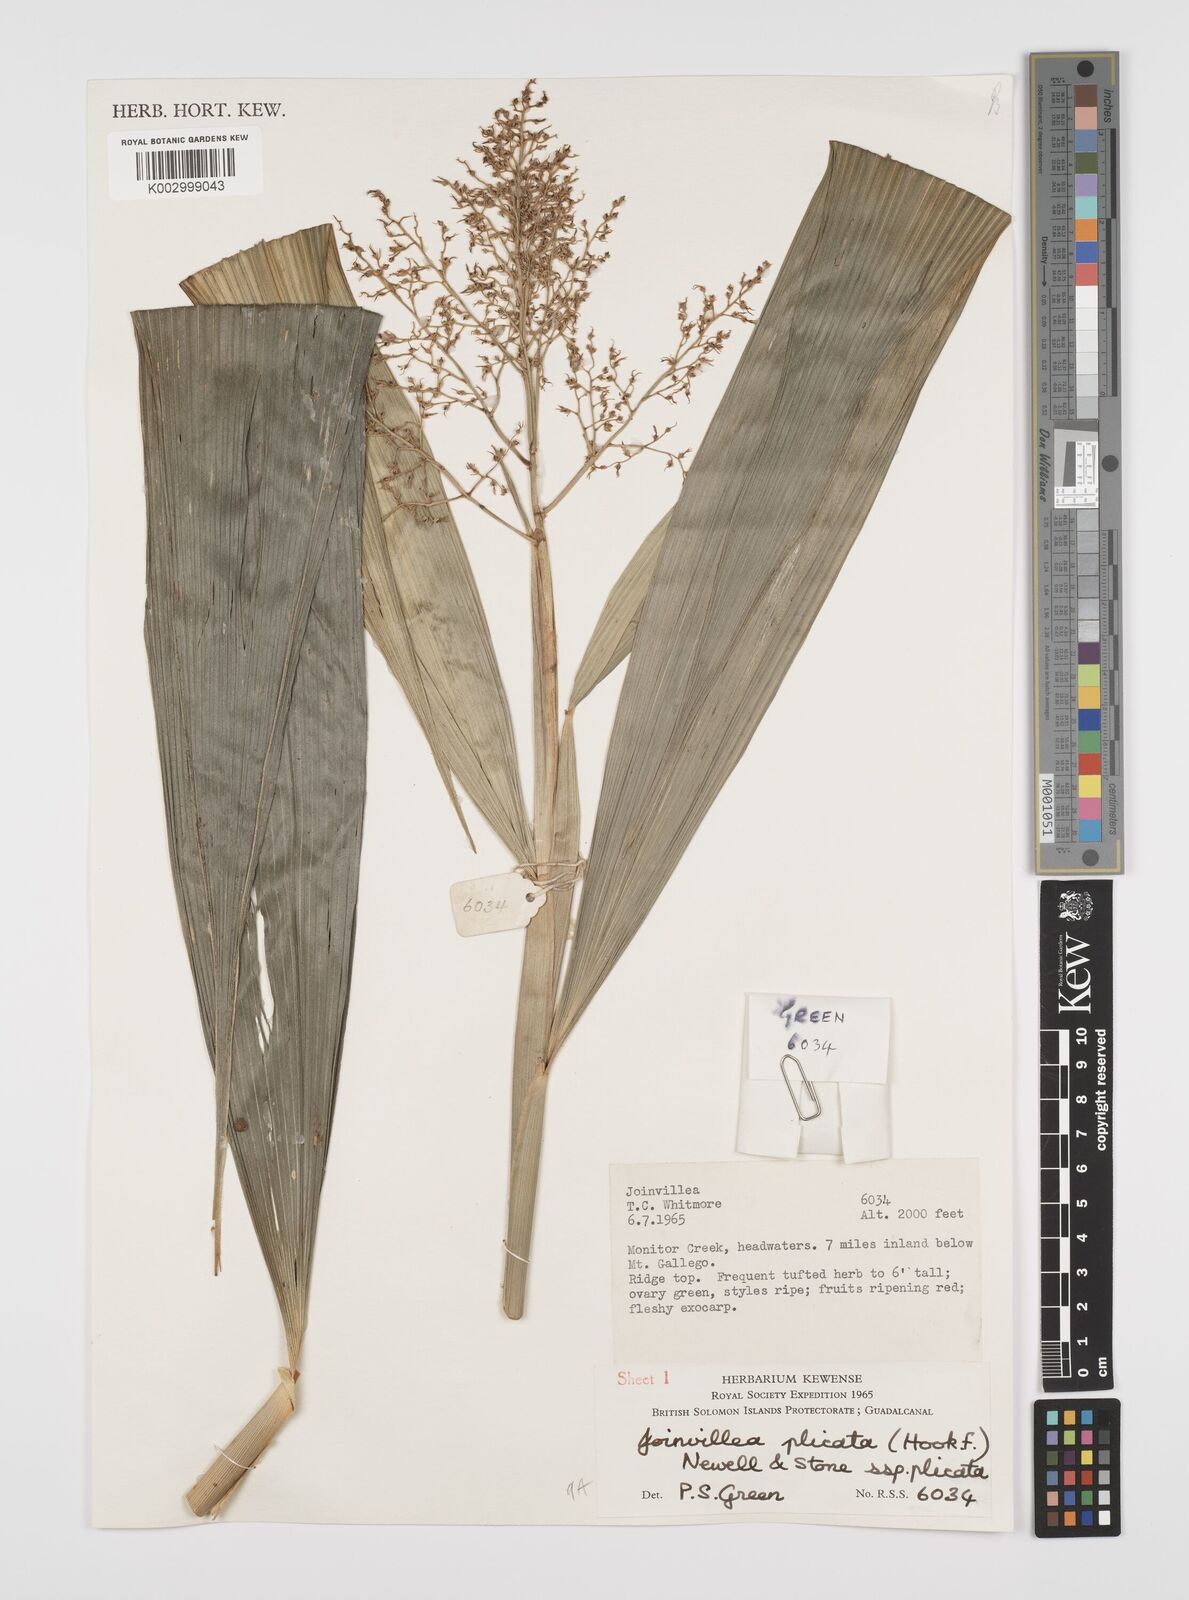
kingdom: Plantae
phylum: Tracheophyta
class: Liliopsida
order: Poales
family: Joinvilleaceae
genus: Joinvillea
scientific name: Joinvillea plicata
